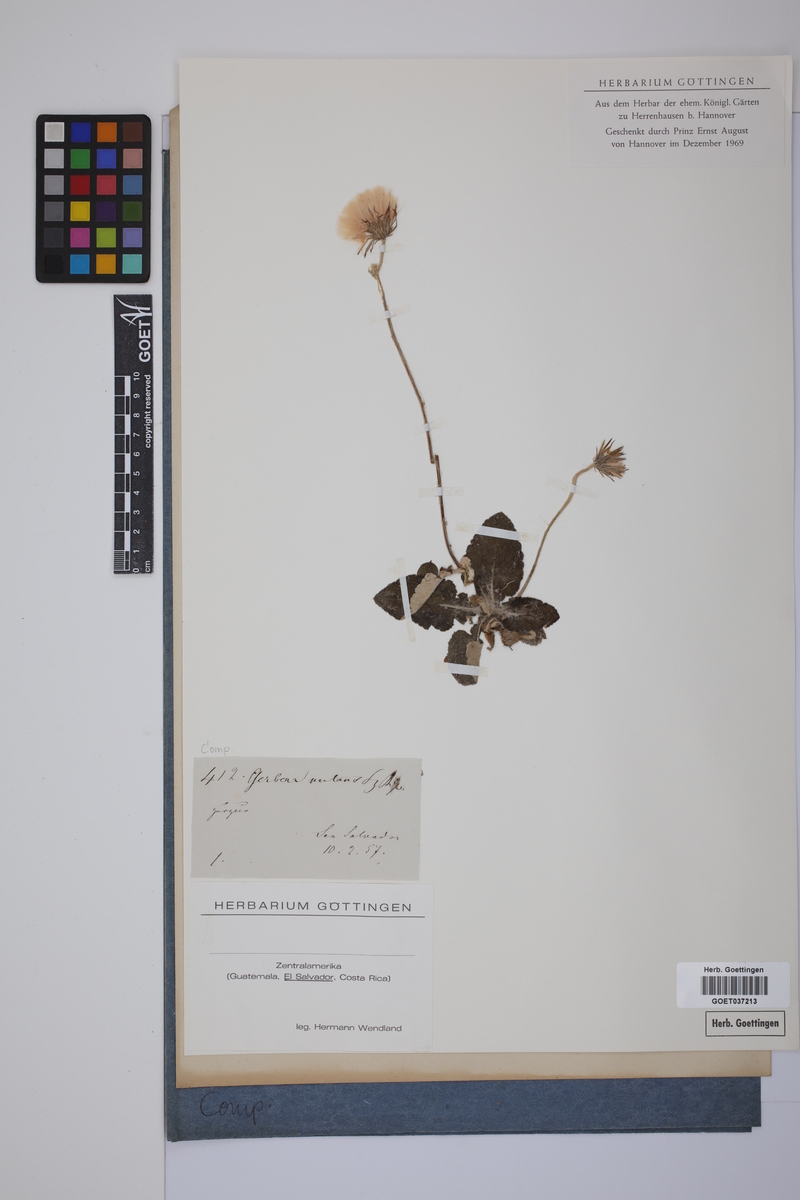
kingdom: Plantae
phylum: Tracheophyta
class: Magnoliopsida
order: Asterales
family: Asteraceae
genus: Chaptalia
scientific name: Chaptalia nutans
